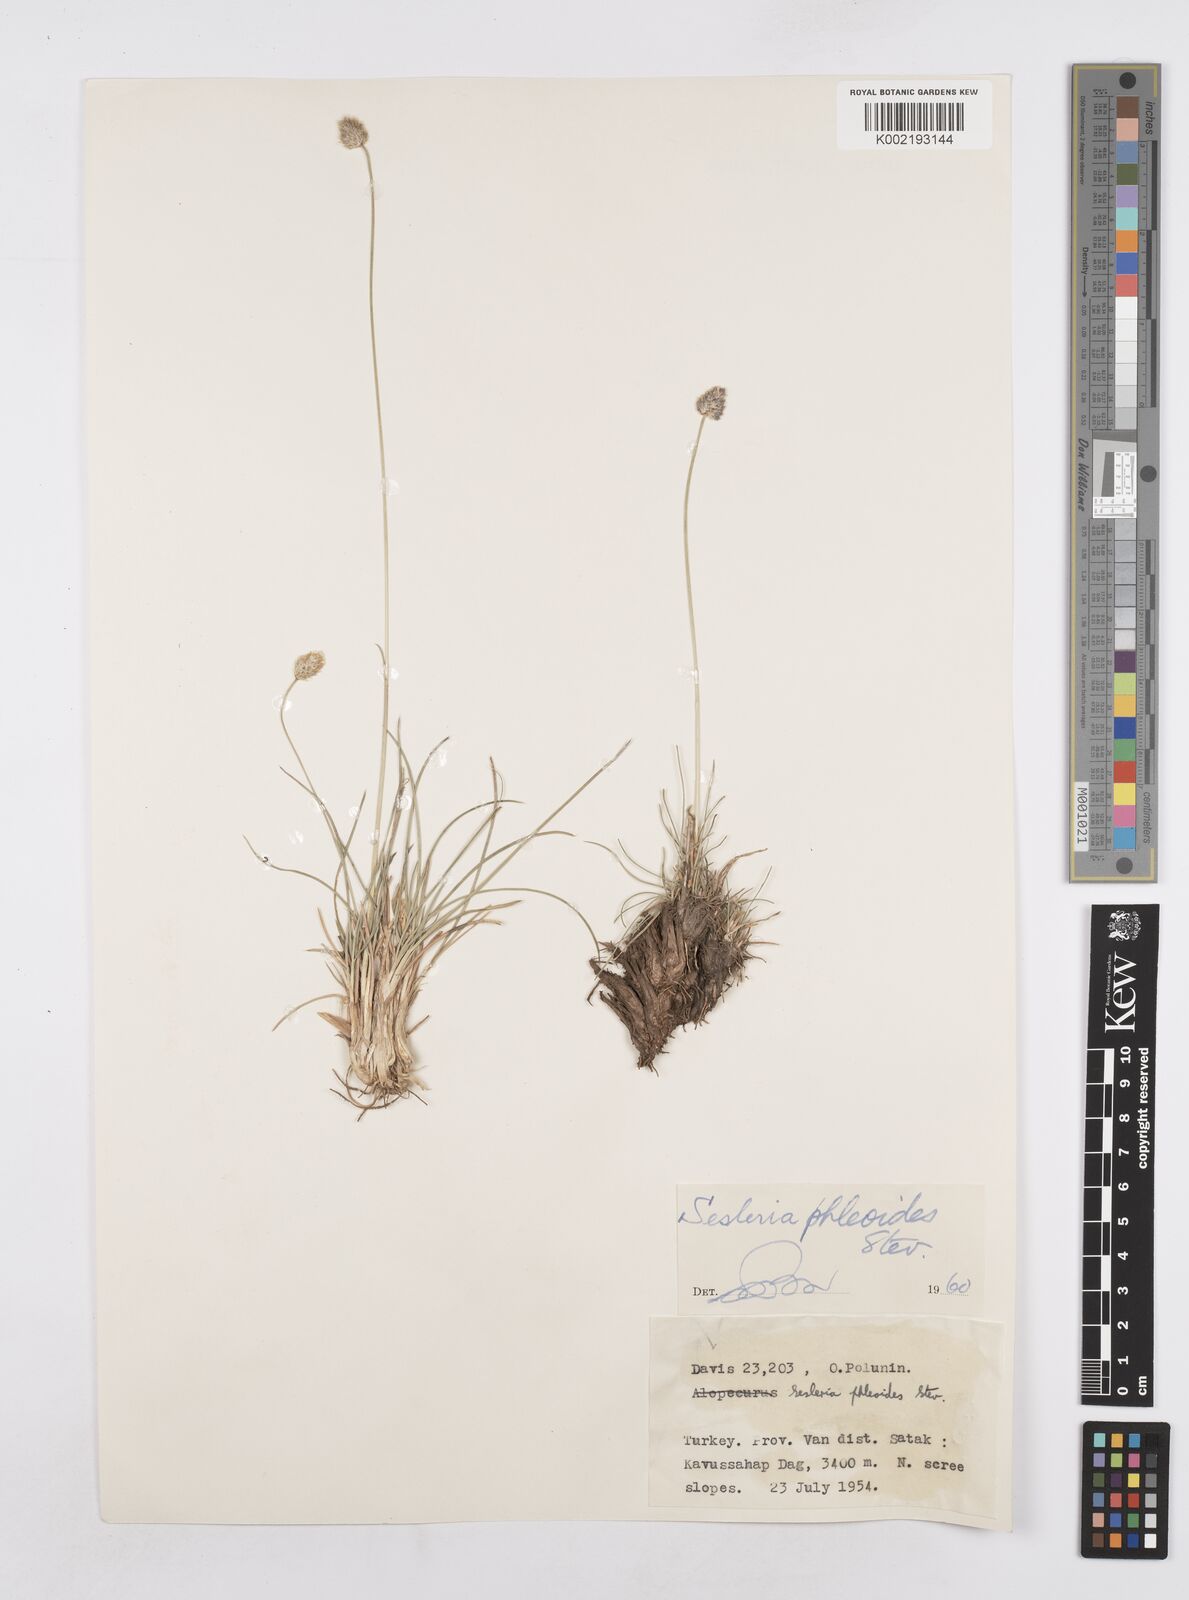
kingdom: Plantae
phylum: Tracheophyta
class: Liliopsida
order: Poales
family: Poaceae
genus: Sesleria
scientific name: Sesleria phleoides
